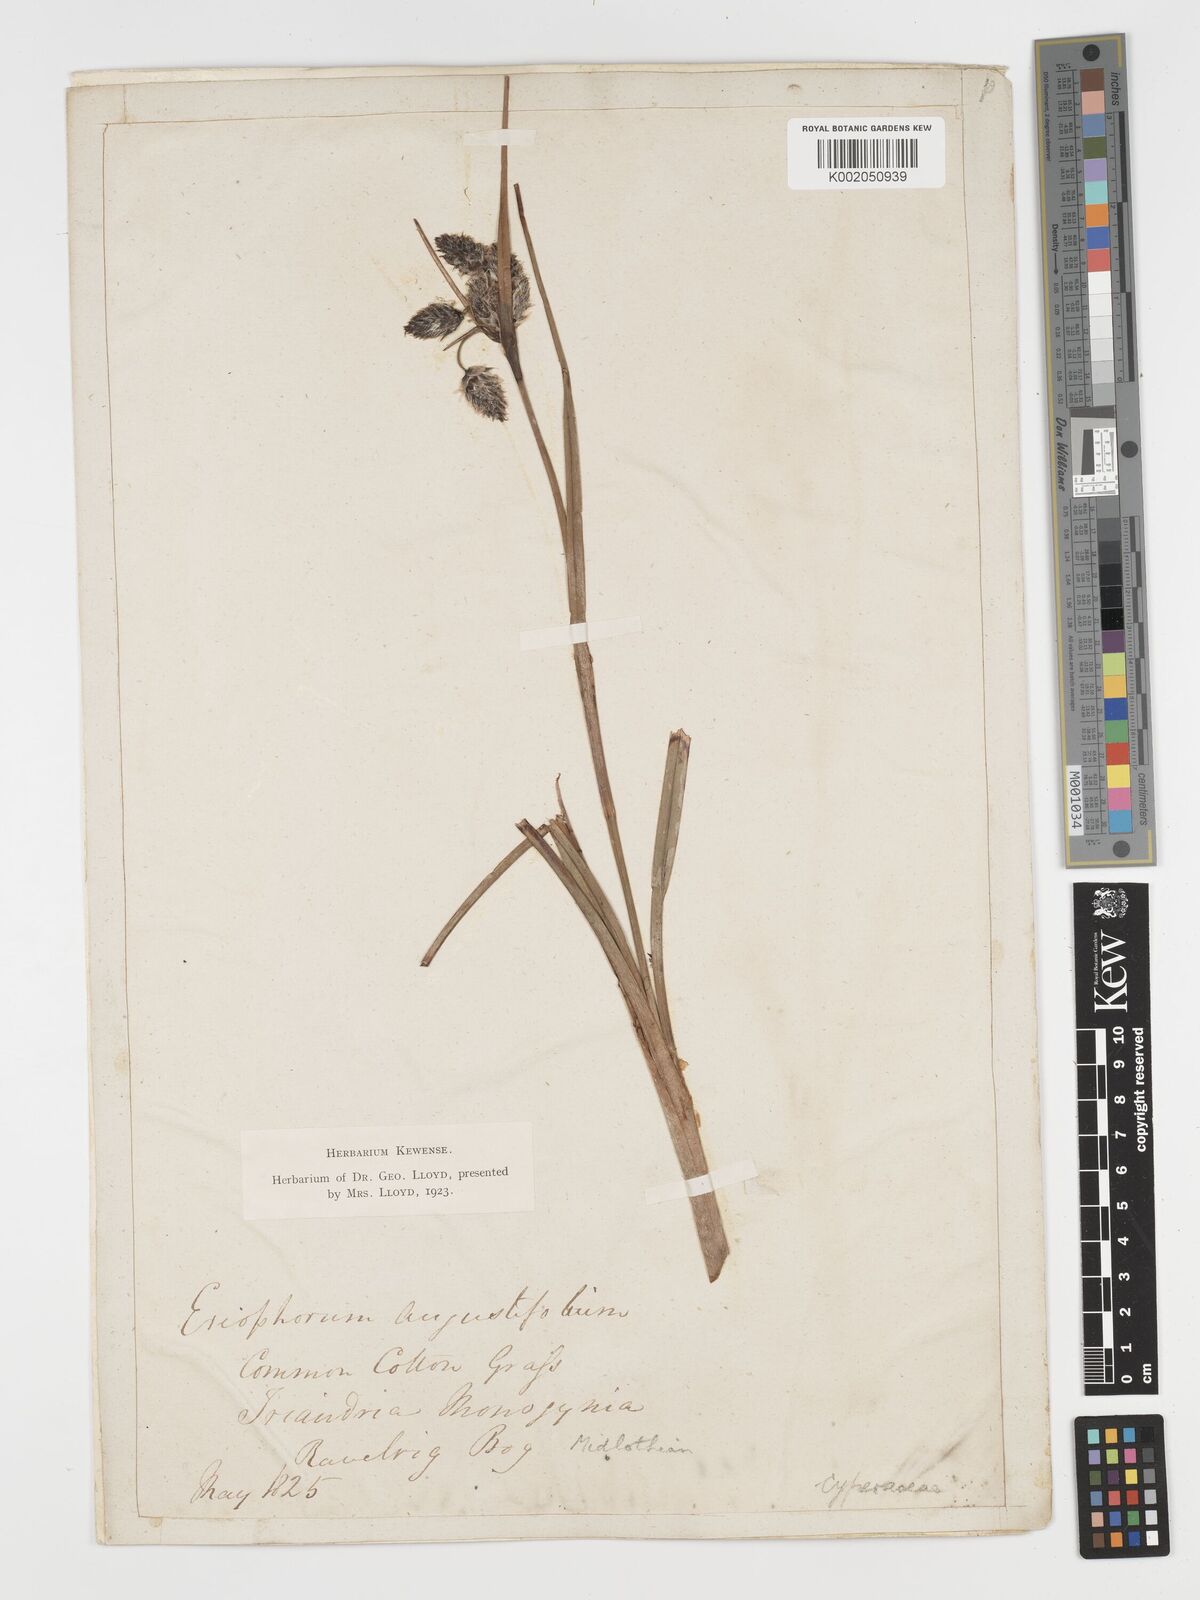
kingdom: Plantae
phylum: Tracheophyta
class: Liliopsida
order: Poales
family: Cyperaceae
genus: Eriophorum
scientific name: Eriophorum angustifolium
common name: Common cottongrass
